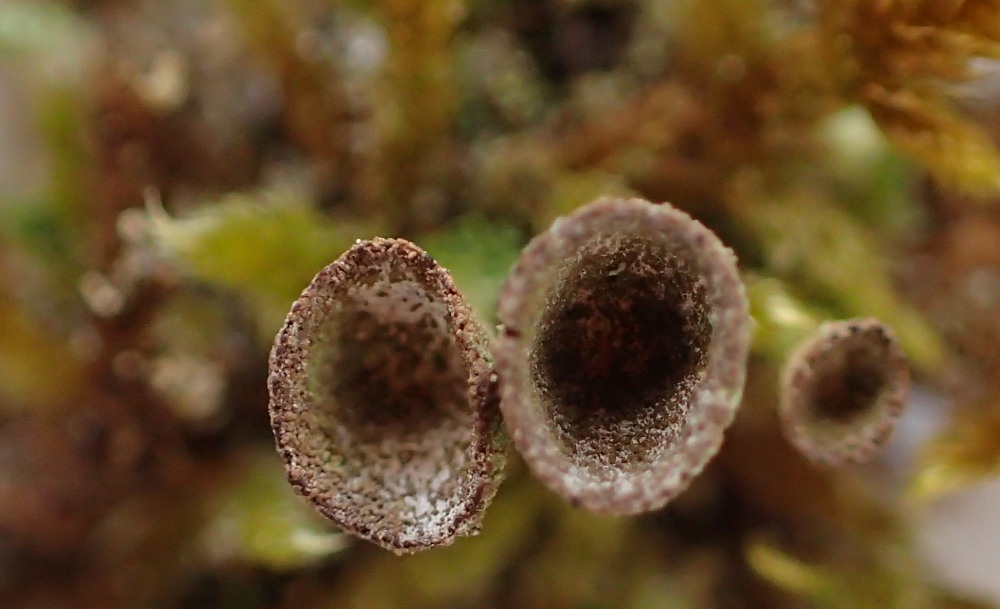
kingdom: Fungi
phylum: Ascomycota
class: Lecanoromycetes
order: Lecanorales
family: Cladoniaceae
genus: Cladonia
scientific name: Cladonia merochlorophaea
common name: mørk bægerlav
